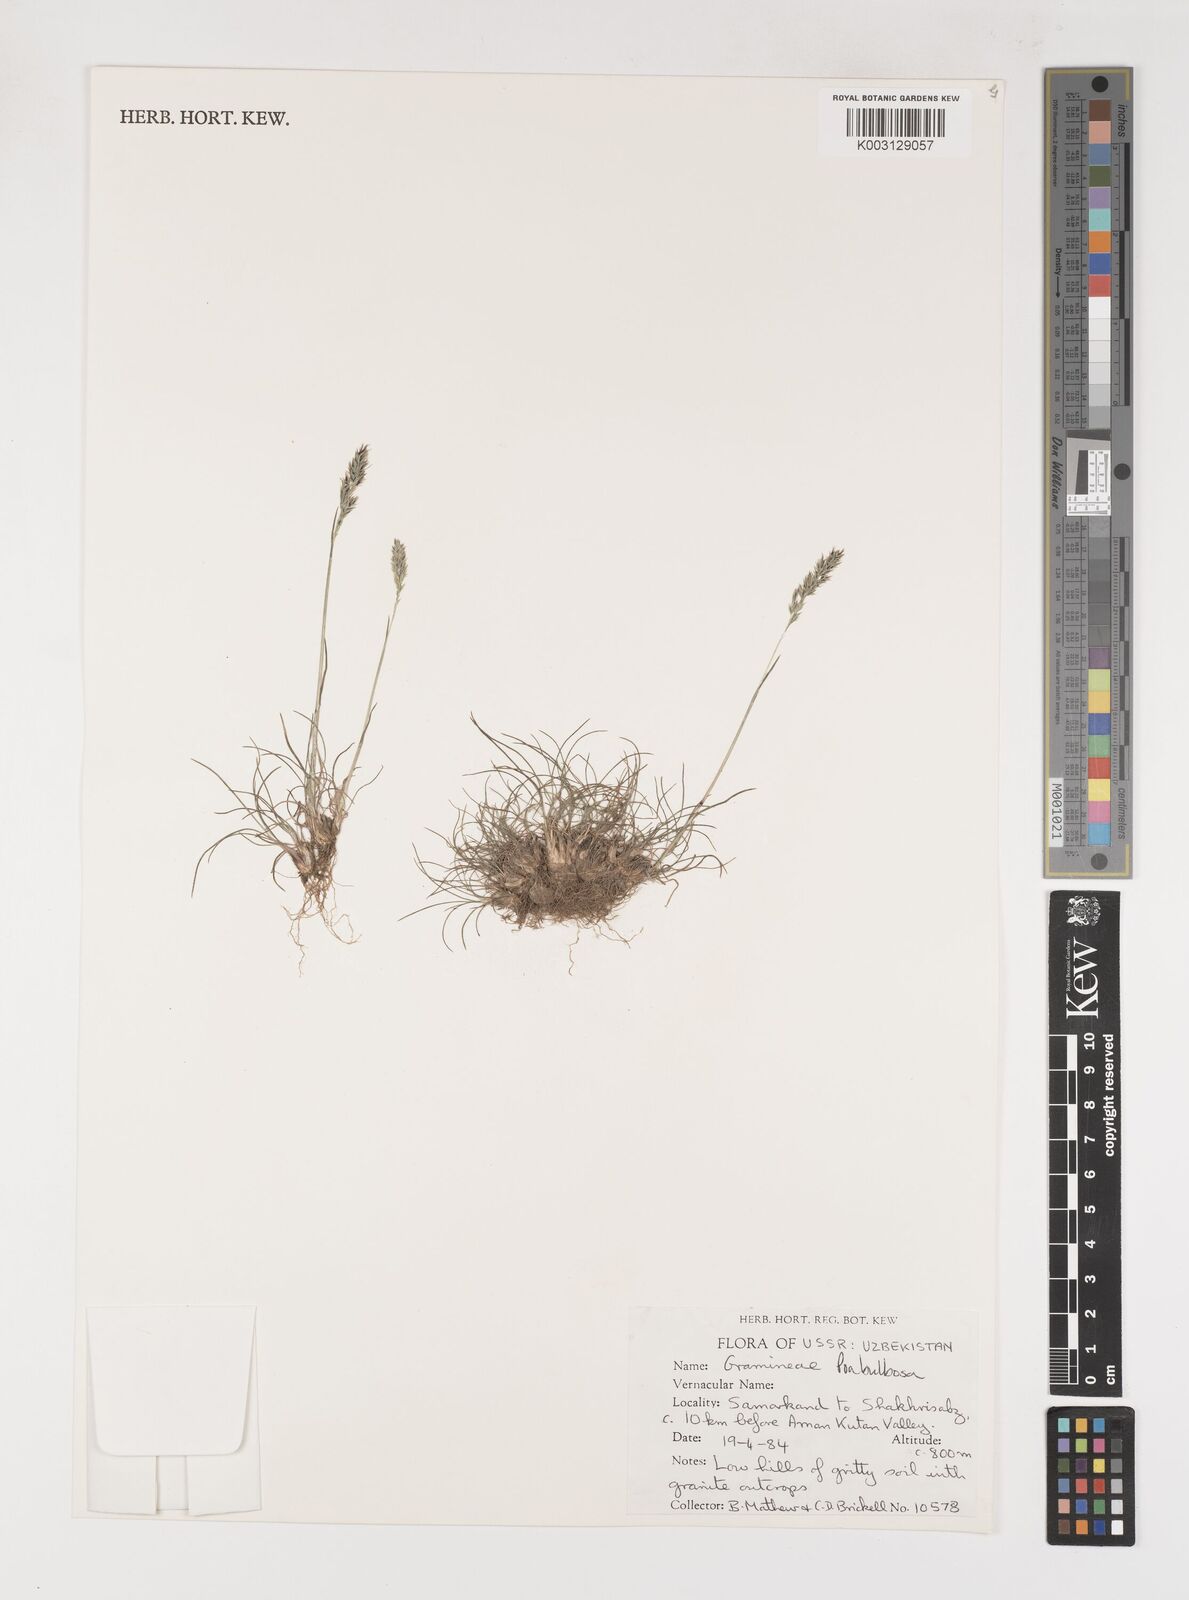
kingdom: Plantae
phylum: Tracheophyta
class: Liliopsida
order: Poales
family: Poaceae
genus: Poa
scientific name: Poa
